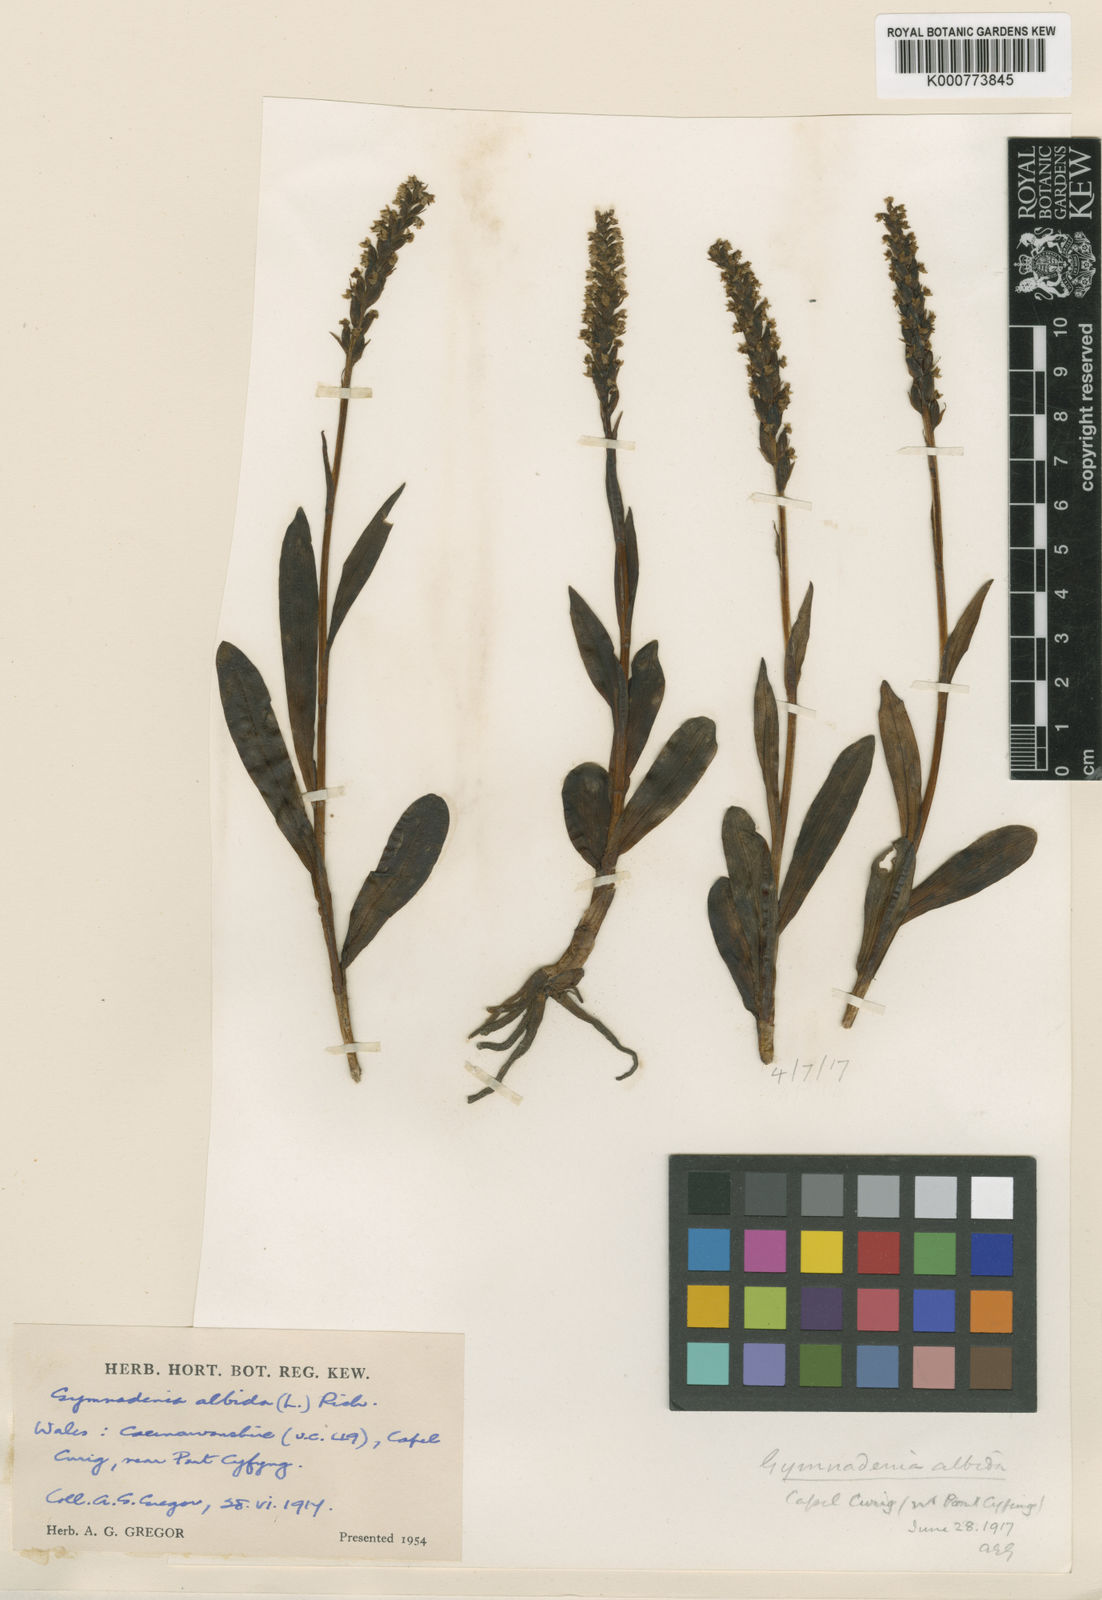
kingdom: Plantae
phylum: Tracheophyta
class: Liliopsida
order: Asparagales
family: Orchidaceae
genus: Pseudorchis
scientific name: Pseudorchis
